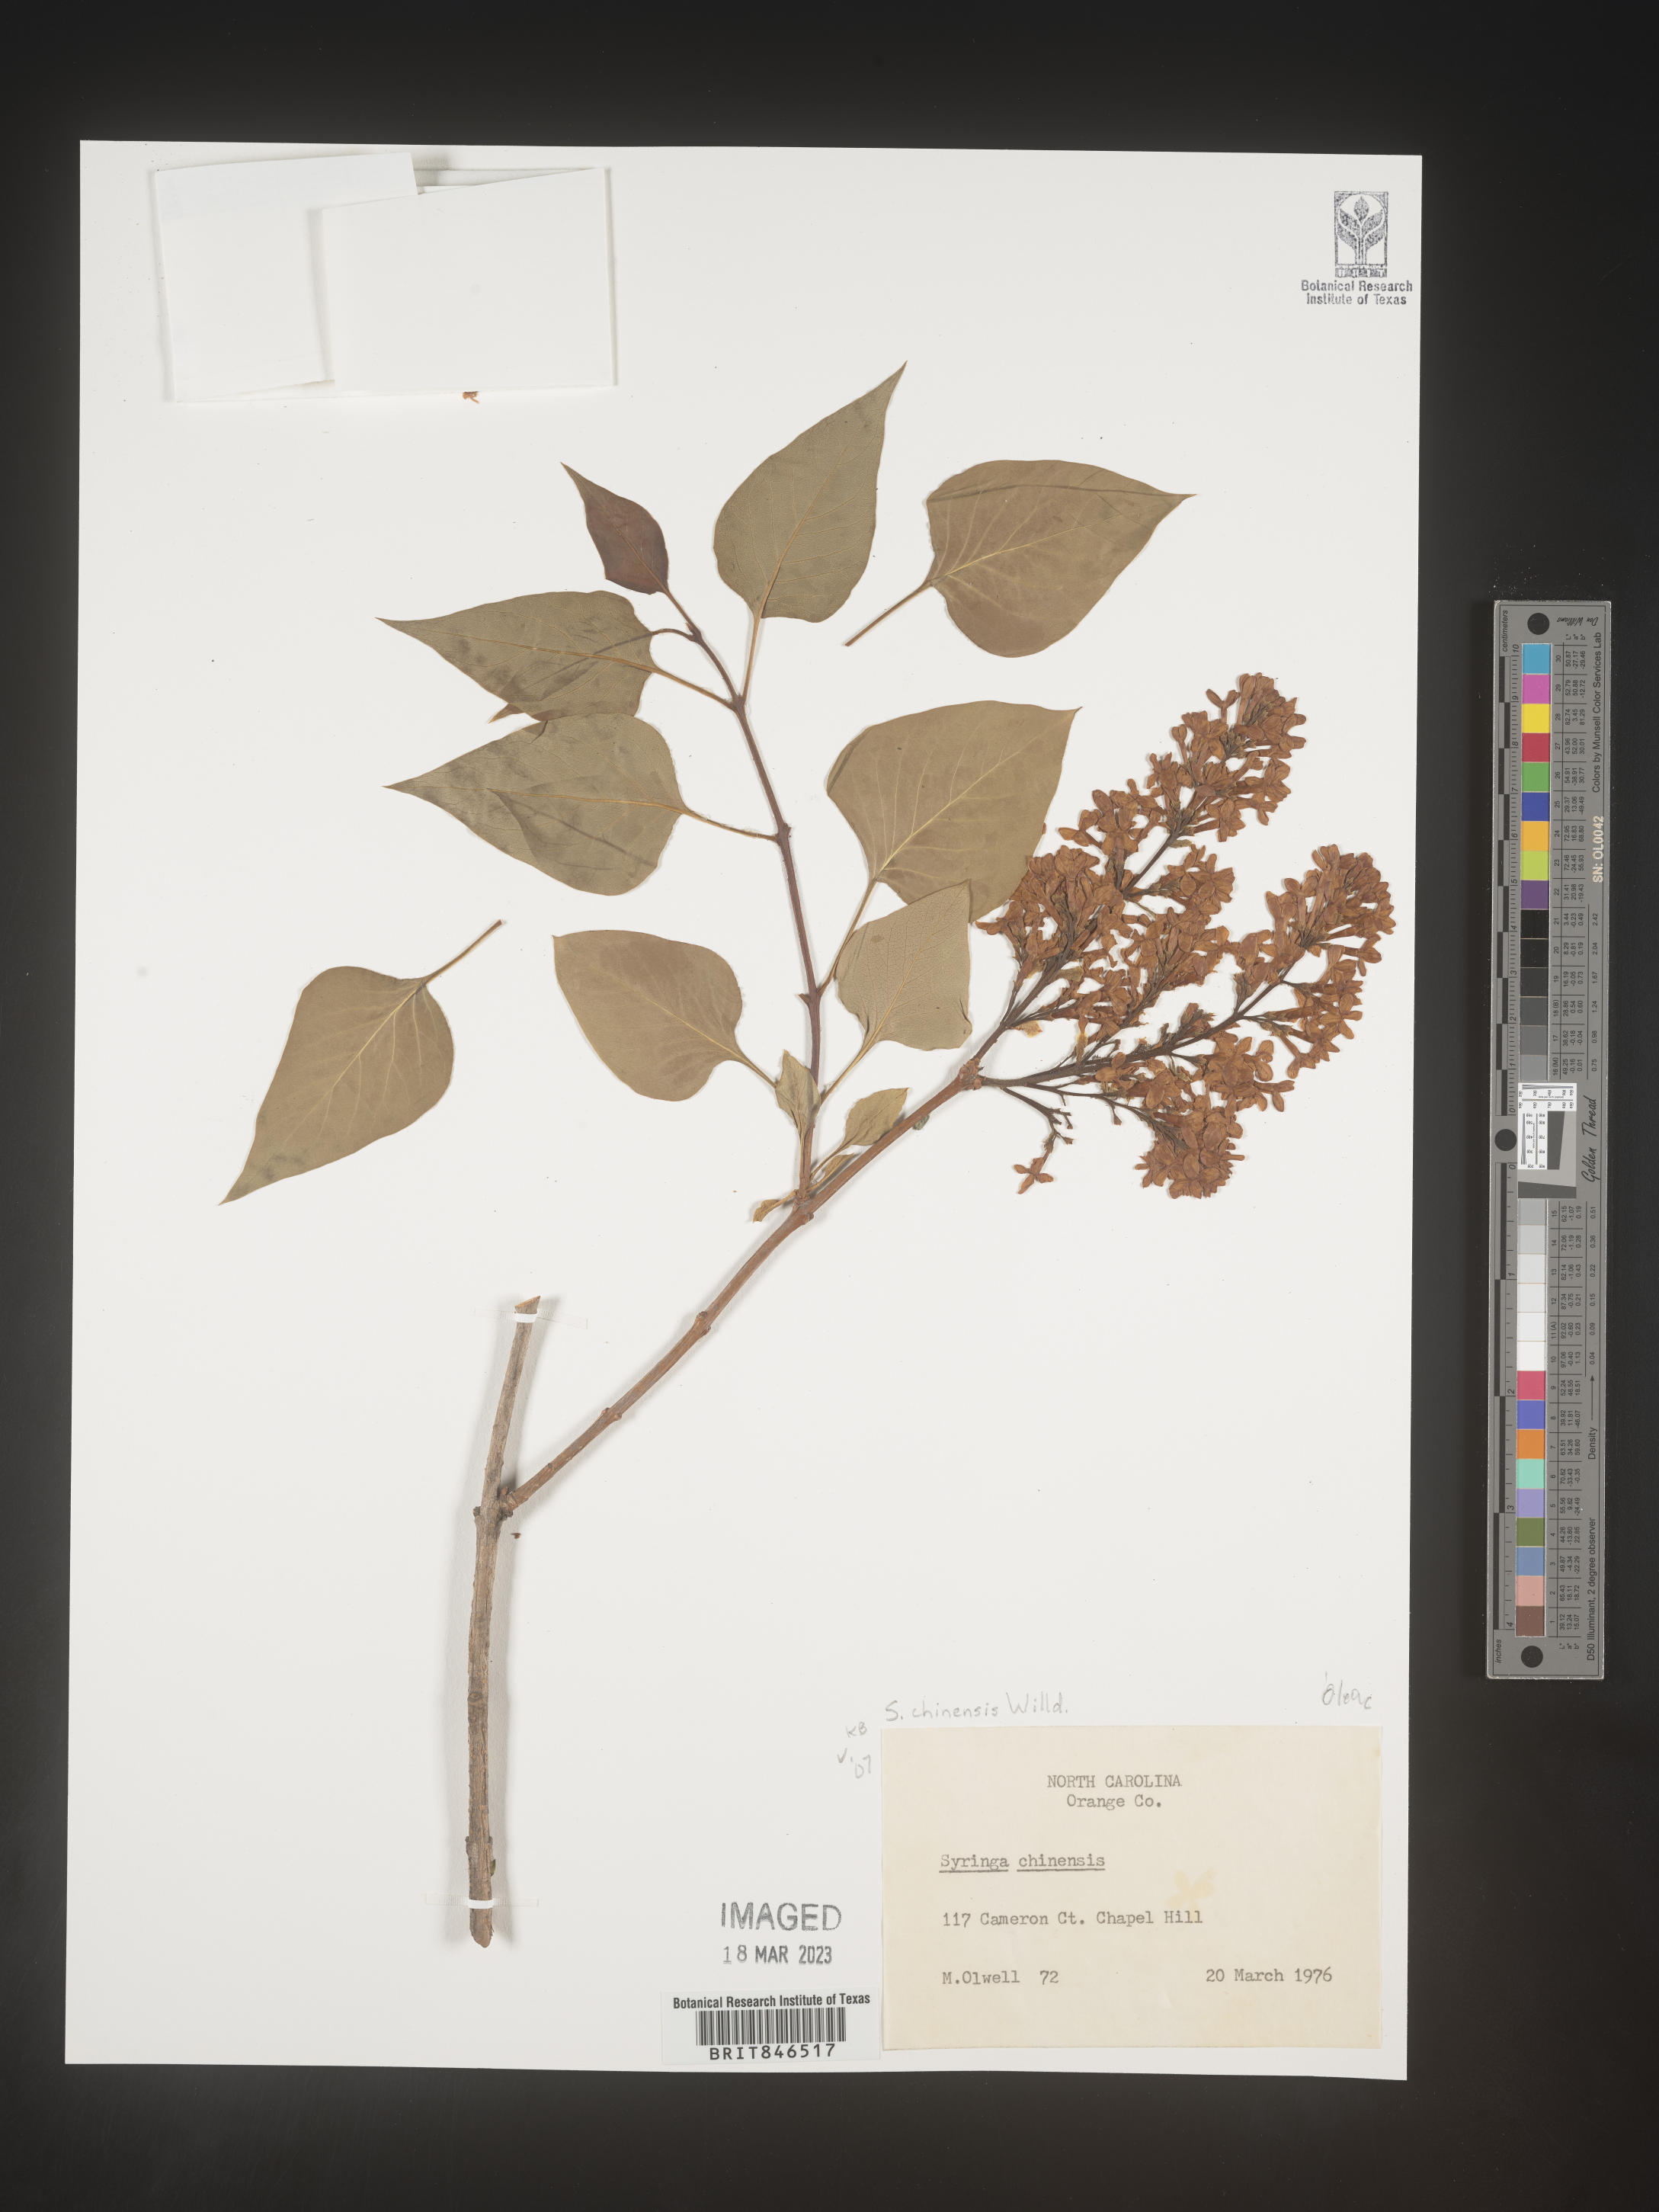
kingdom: Plantae
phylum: Tracheophyta
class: Magnoliopsida
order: Lamiales
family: Oleaceae
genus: Syringa
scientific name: Syringa
